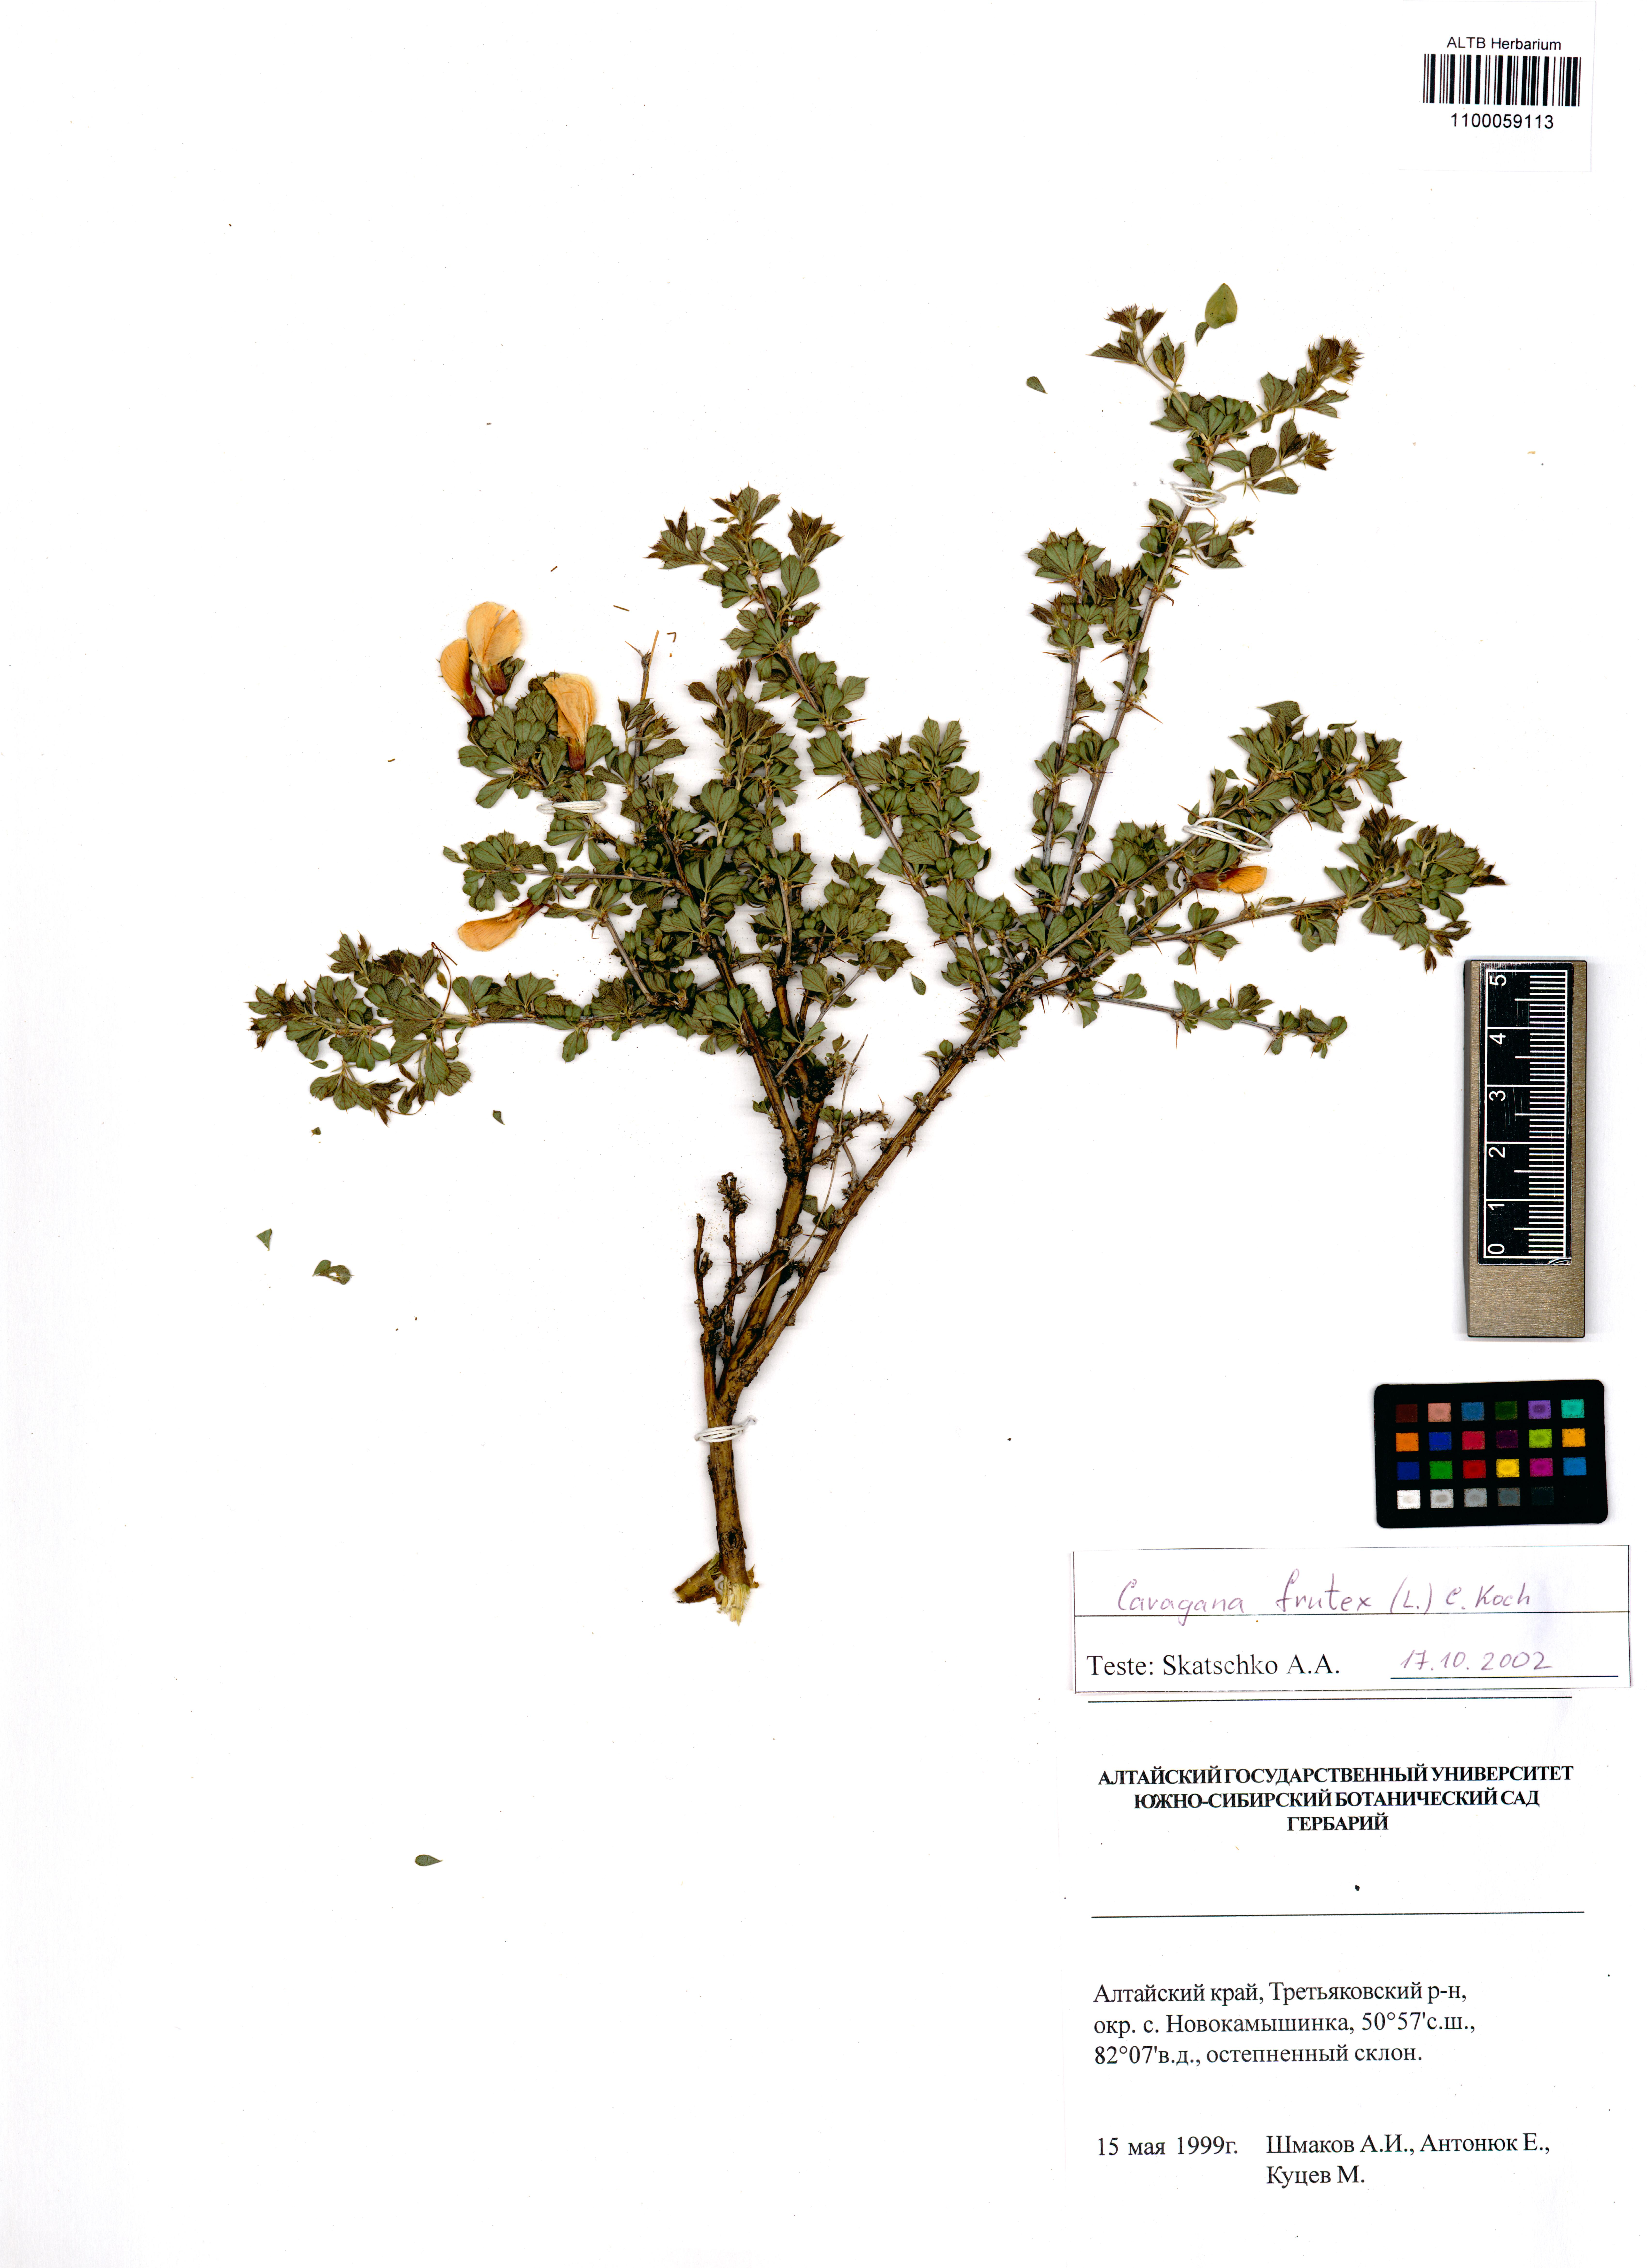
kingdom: Plantae
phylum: Tracheophyta
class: Magnoliopsida
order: Fabales
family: Fabaceae
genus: Caragana
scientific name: Caragana frutex
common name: Russian peashrub
